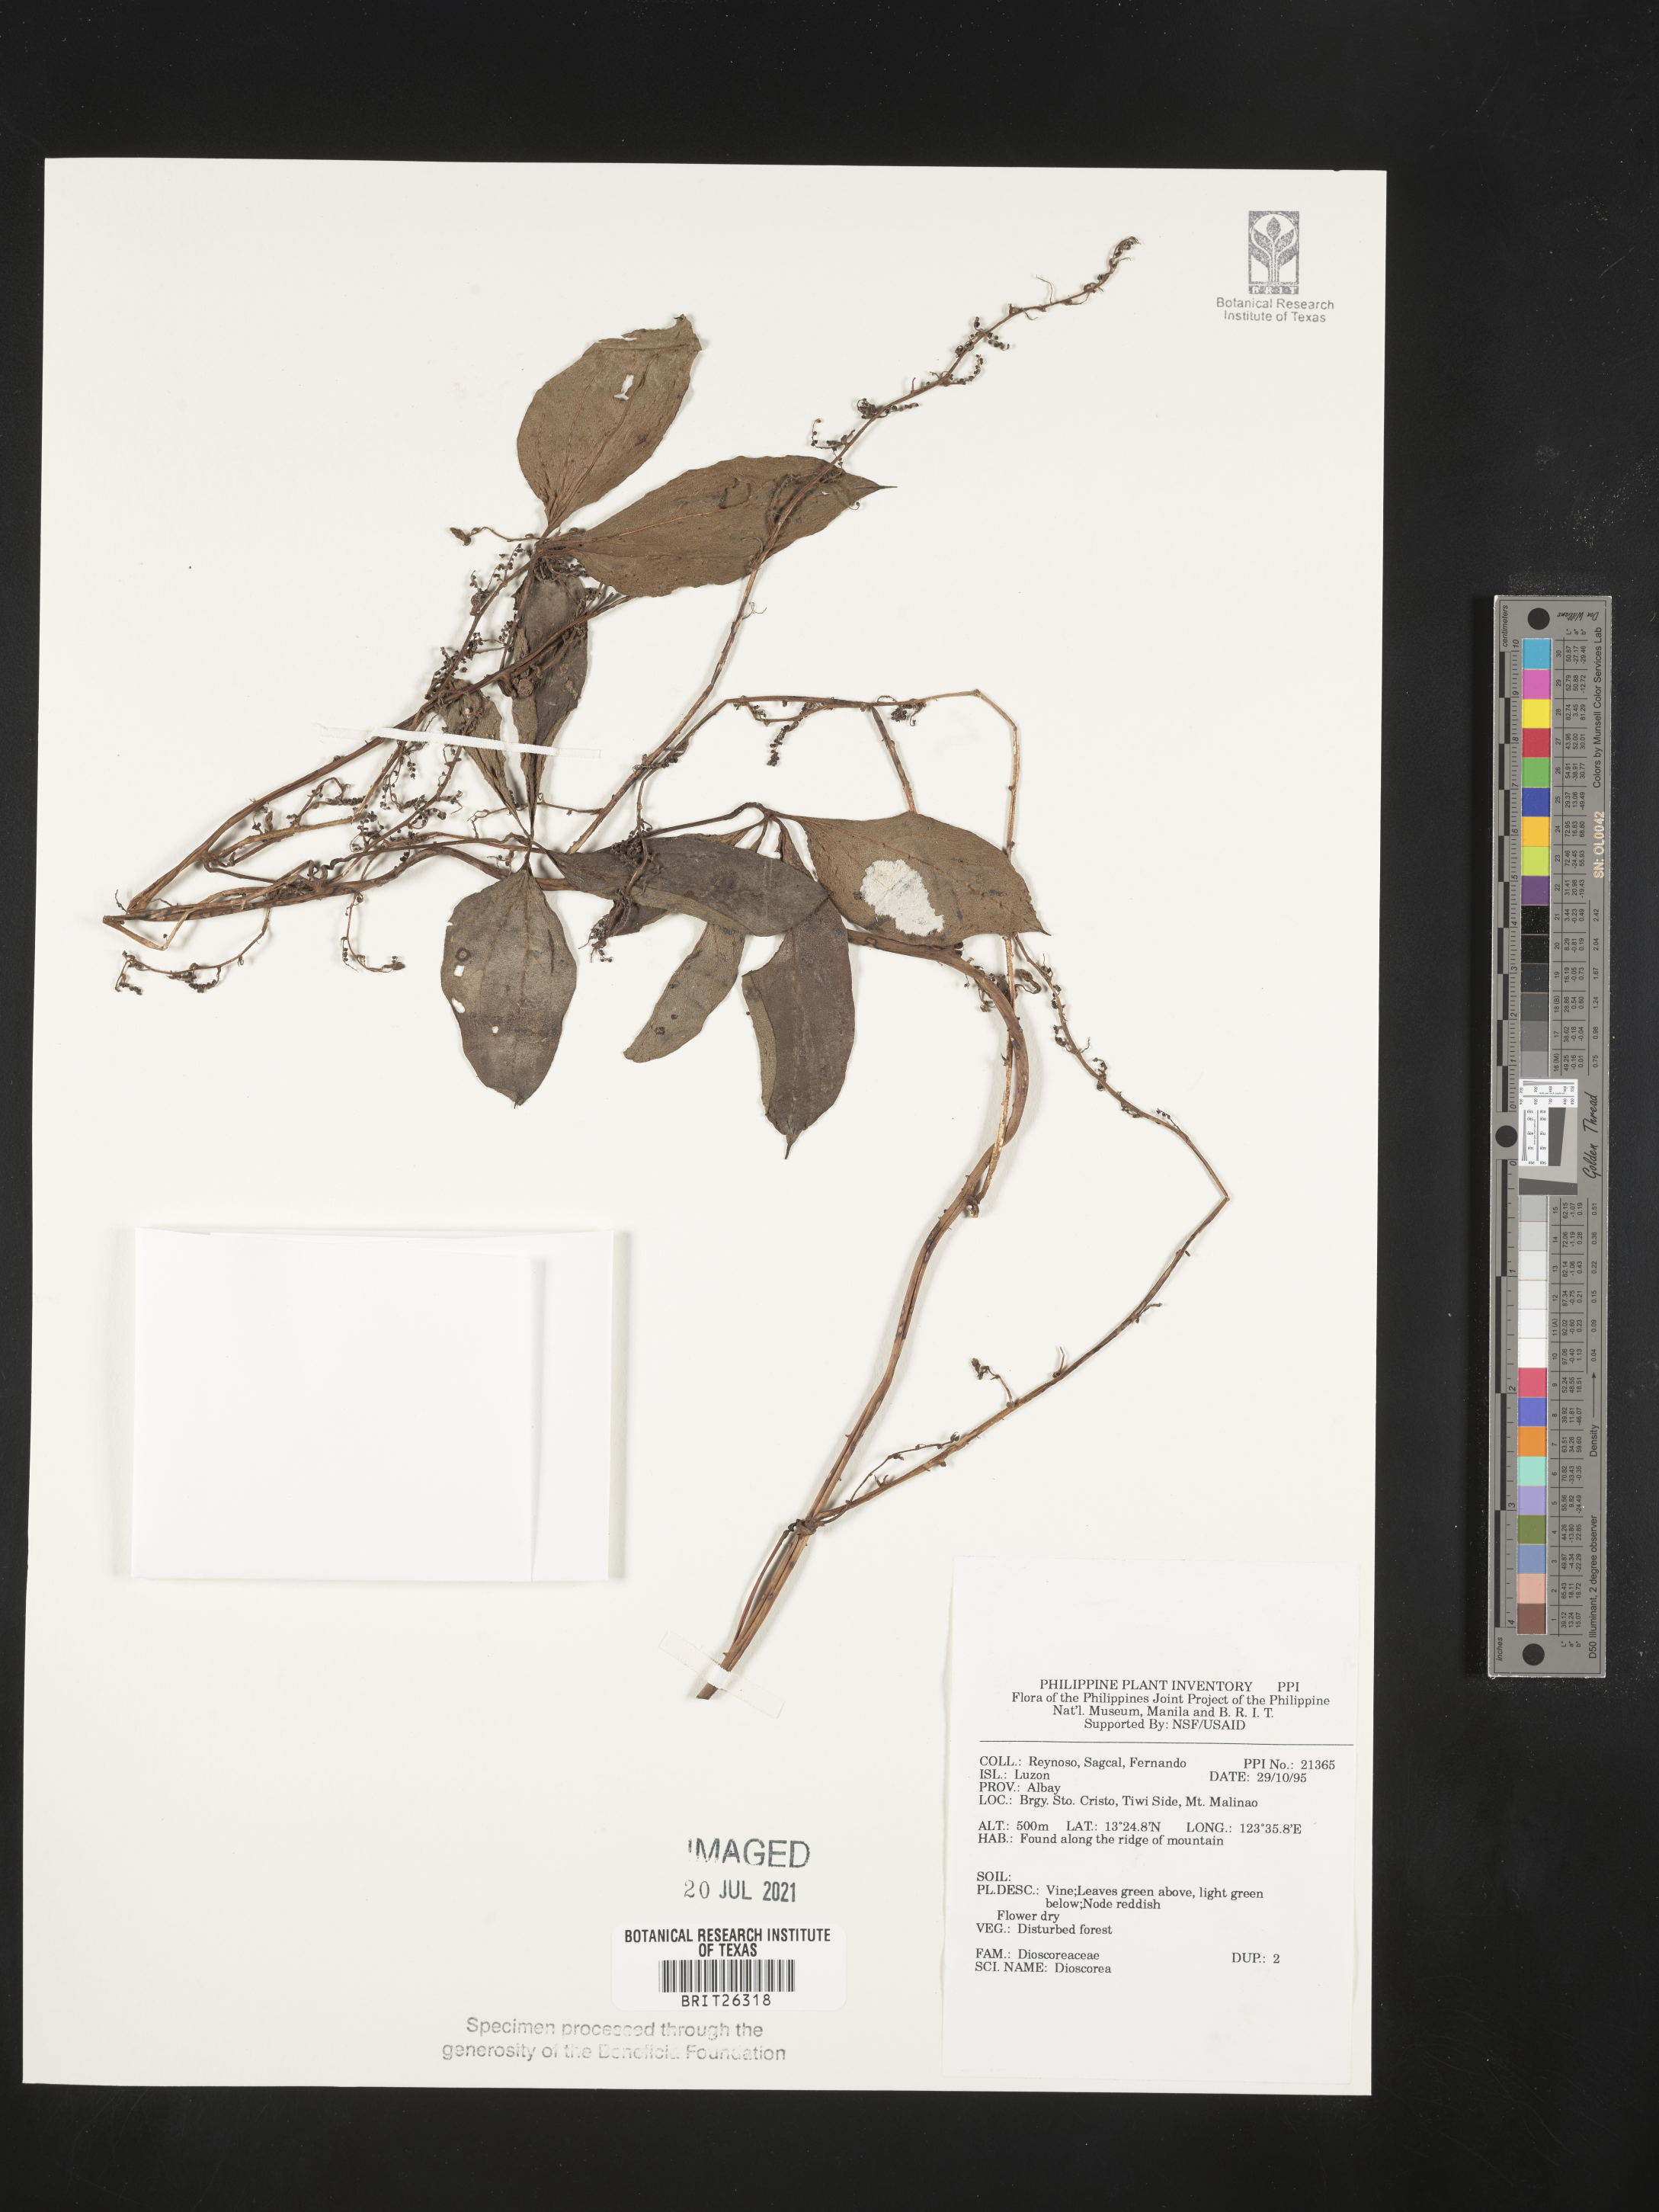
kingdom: Plantae
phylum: Tracheophyta
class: Liliopsida
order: Dioscoreales
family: Dioscoreaceae
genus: Dioscorea
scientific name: Dioscorea
